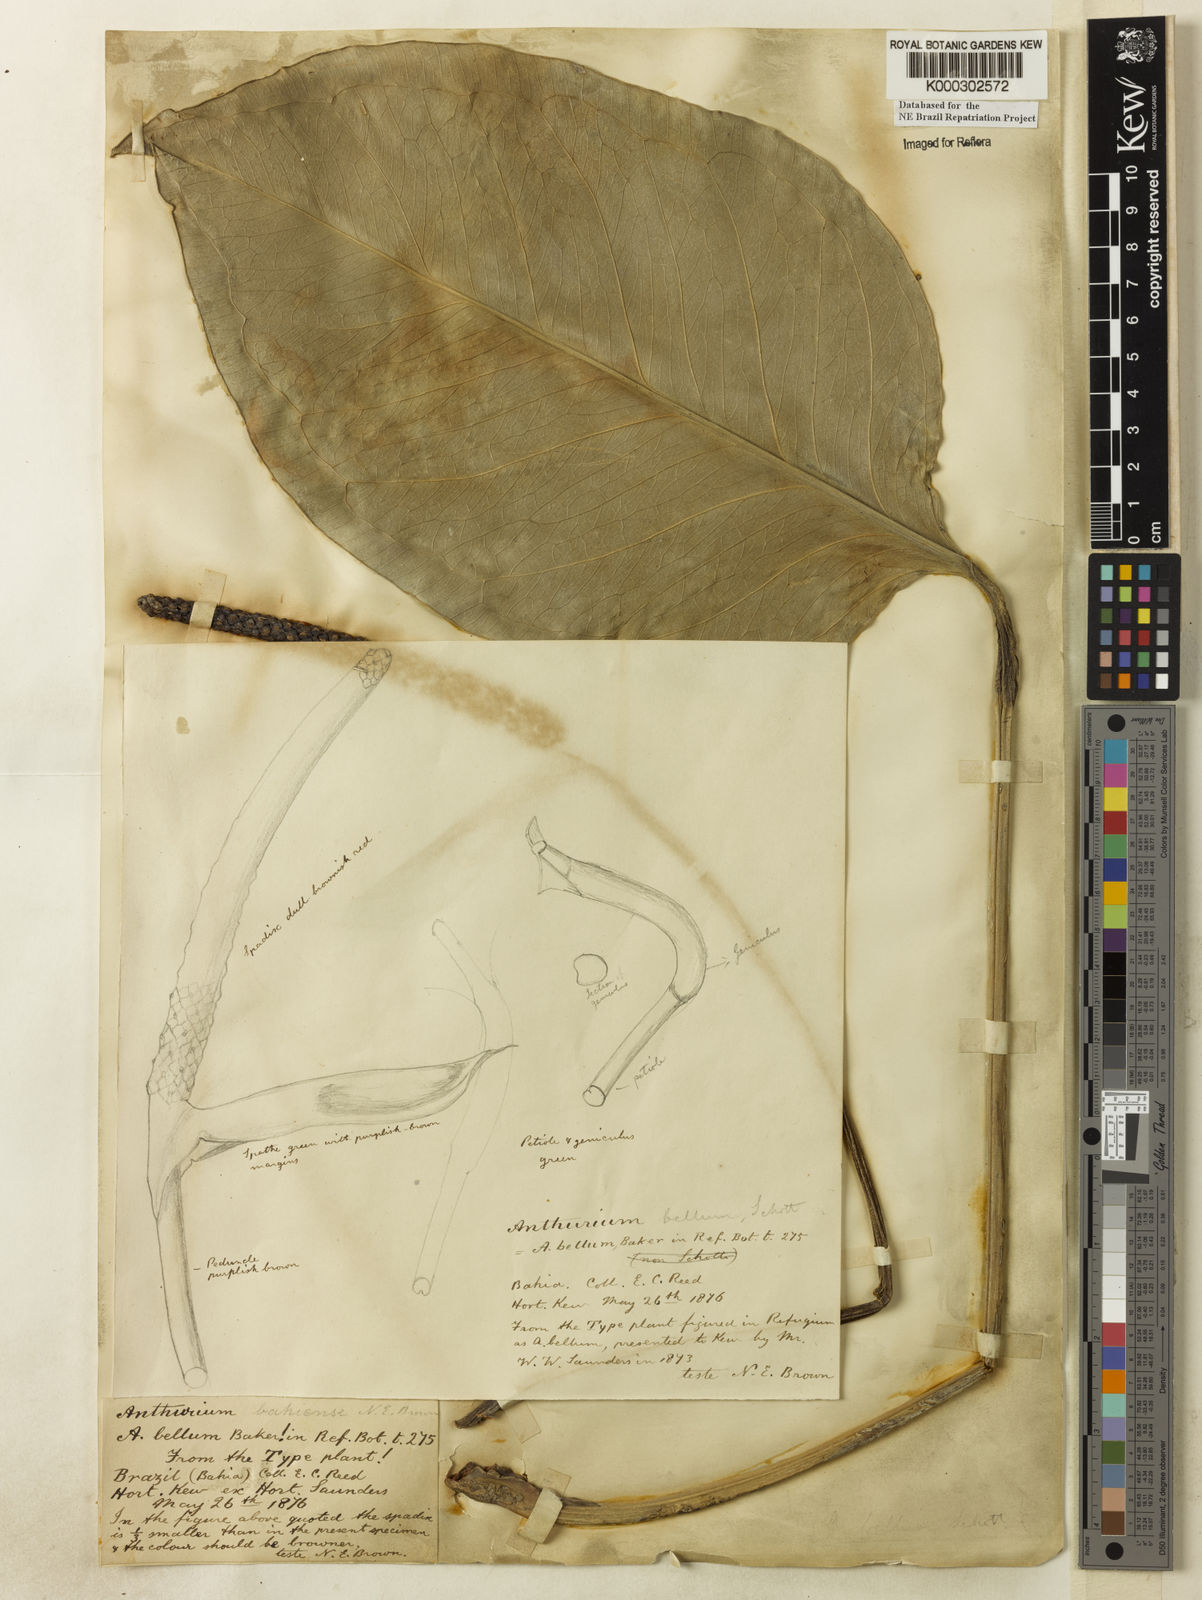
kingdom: Plantae
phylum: Tracheophyta
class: Liliopsida
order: Alismatales
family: Araceae
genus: Anthurium
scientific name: Anthurium bellum
